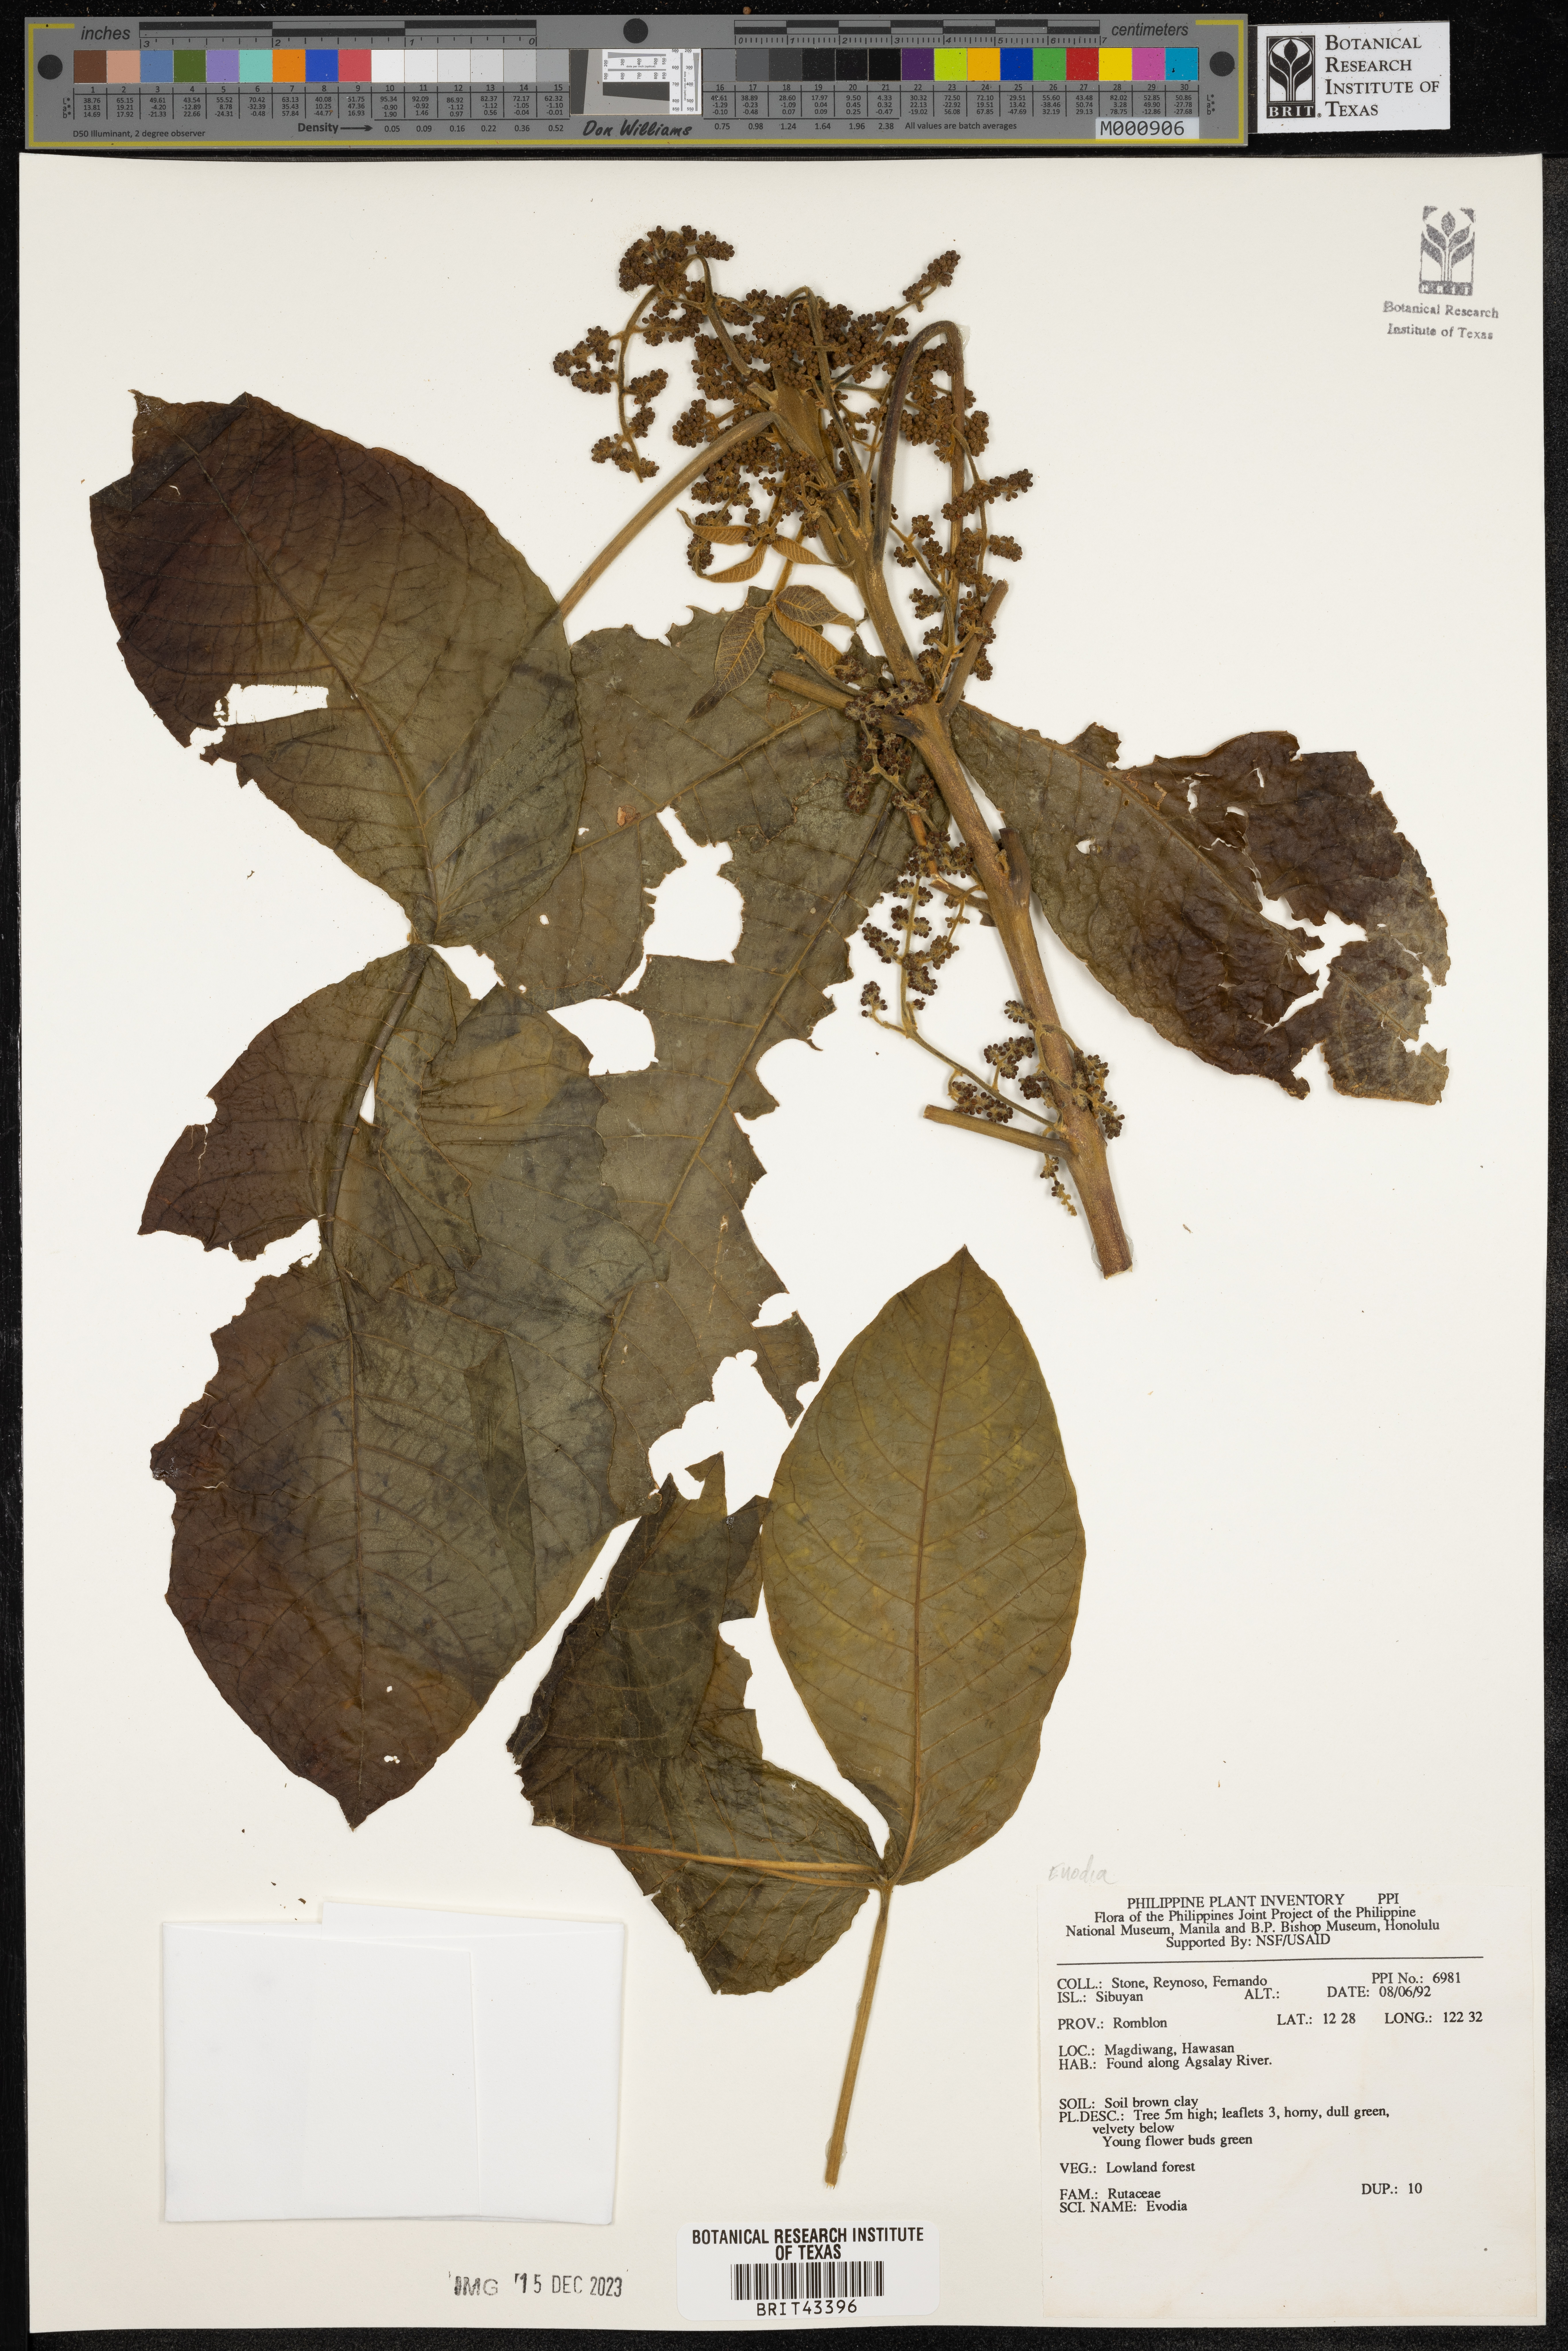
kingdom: Plantae
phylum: Tracheophyta
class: Magnoliopsida
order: Sapindales
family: Rutaceae
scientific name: Rutaceae
